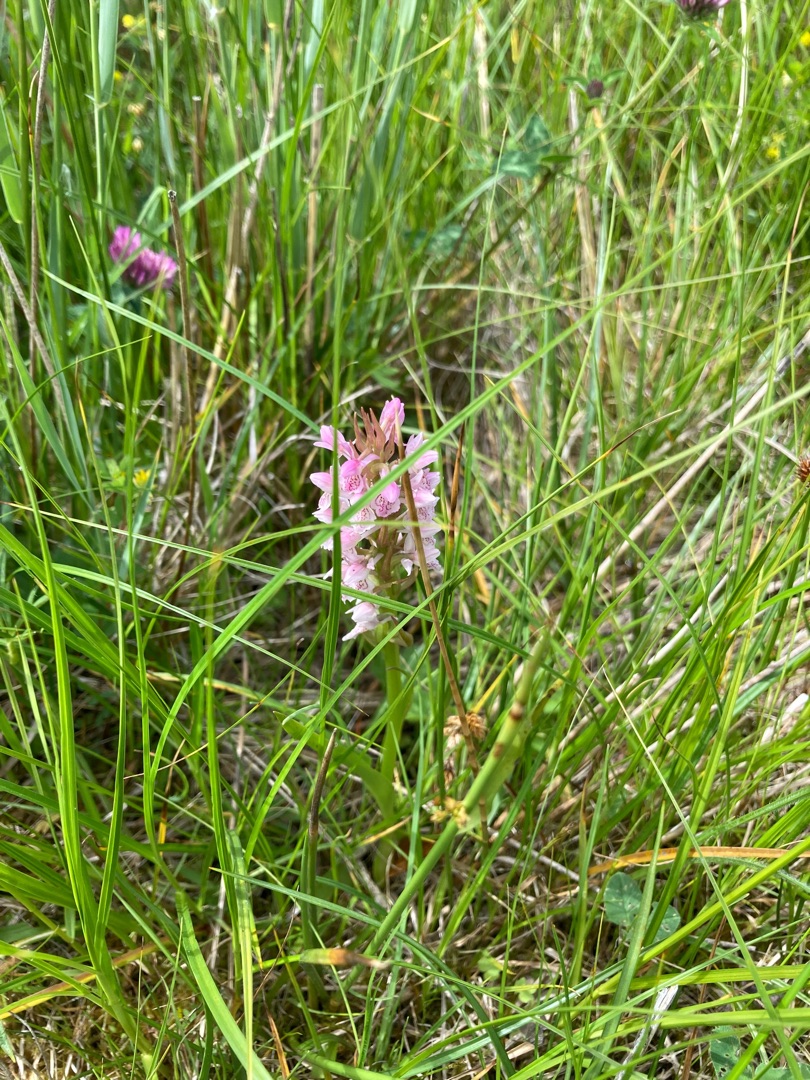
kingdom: Plantae
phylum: Tracheophyta
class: Liliopsida
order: Asparagales
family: Orchidaceae
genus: Dactylorhiza
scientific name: Dactylorhiza incarnata
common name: Kødfarvet gøgeurt
